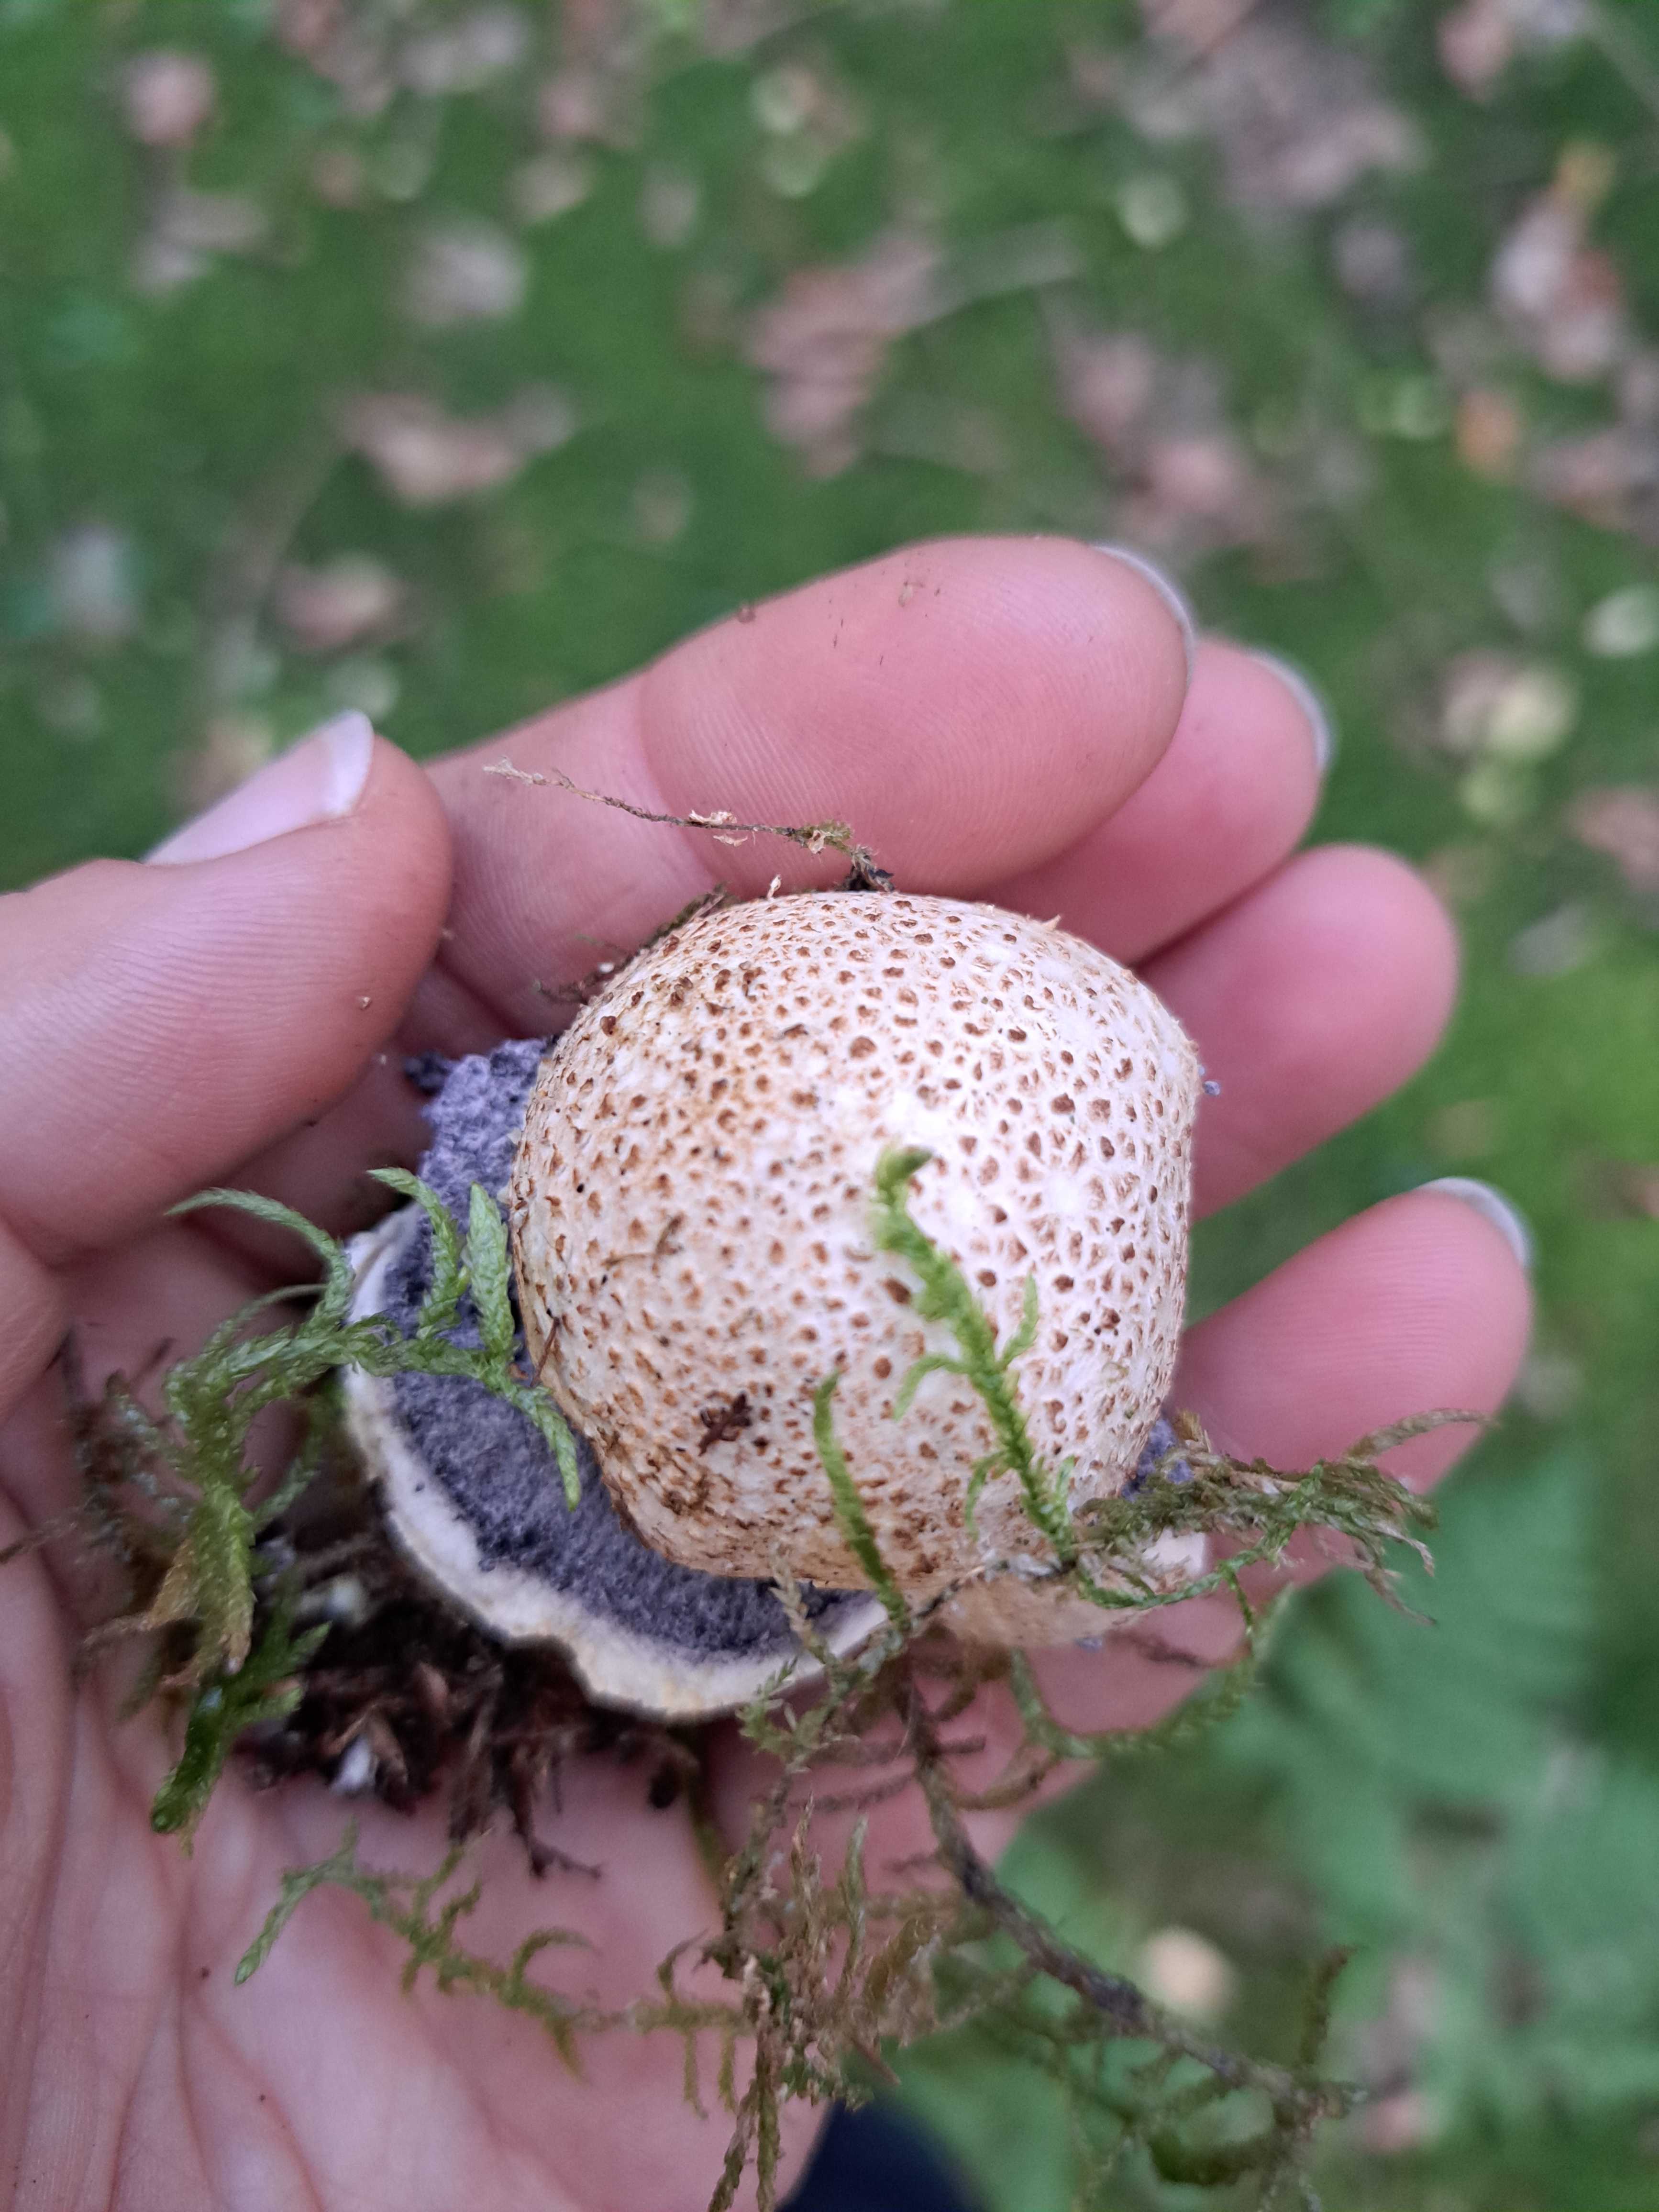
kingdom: Fungi
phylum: Basidiomycota
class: Agaricomycetes
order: Boletales
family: Sclerodermataceae
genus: Scleroderma
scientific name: Scleroderma citrinum
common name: almindelig bruskbold
